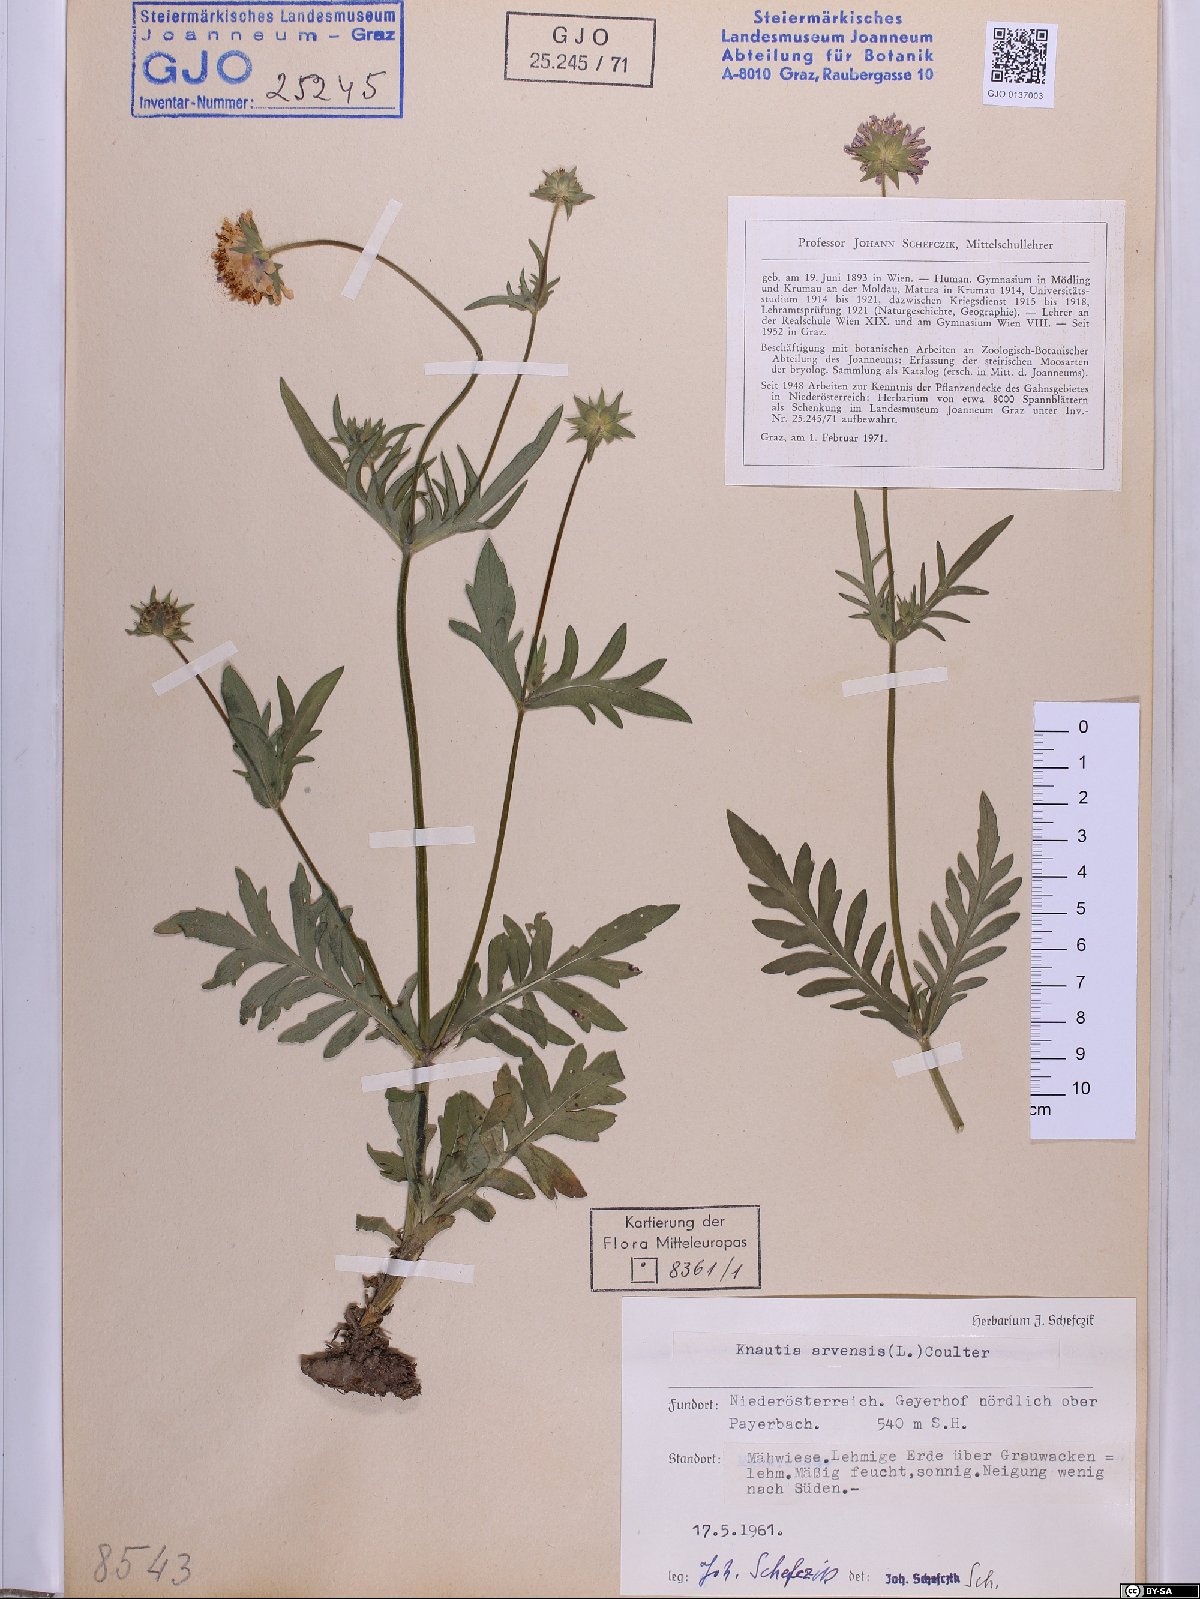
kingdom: Plantae
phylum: Tracheophyta
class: Magnoliopsida
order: Dipsacales
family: Caprifoliaceae
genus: Knautia
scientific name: Knautia arvensis
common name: Field scabiosa
